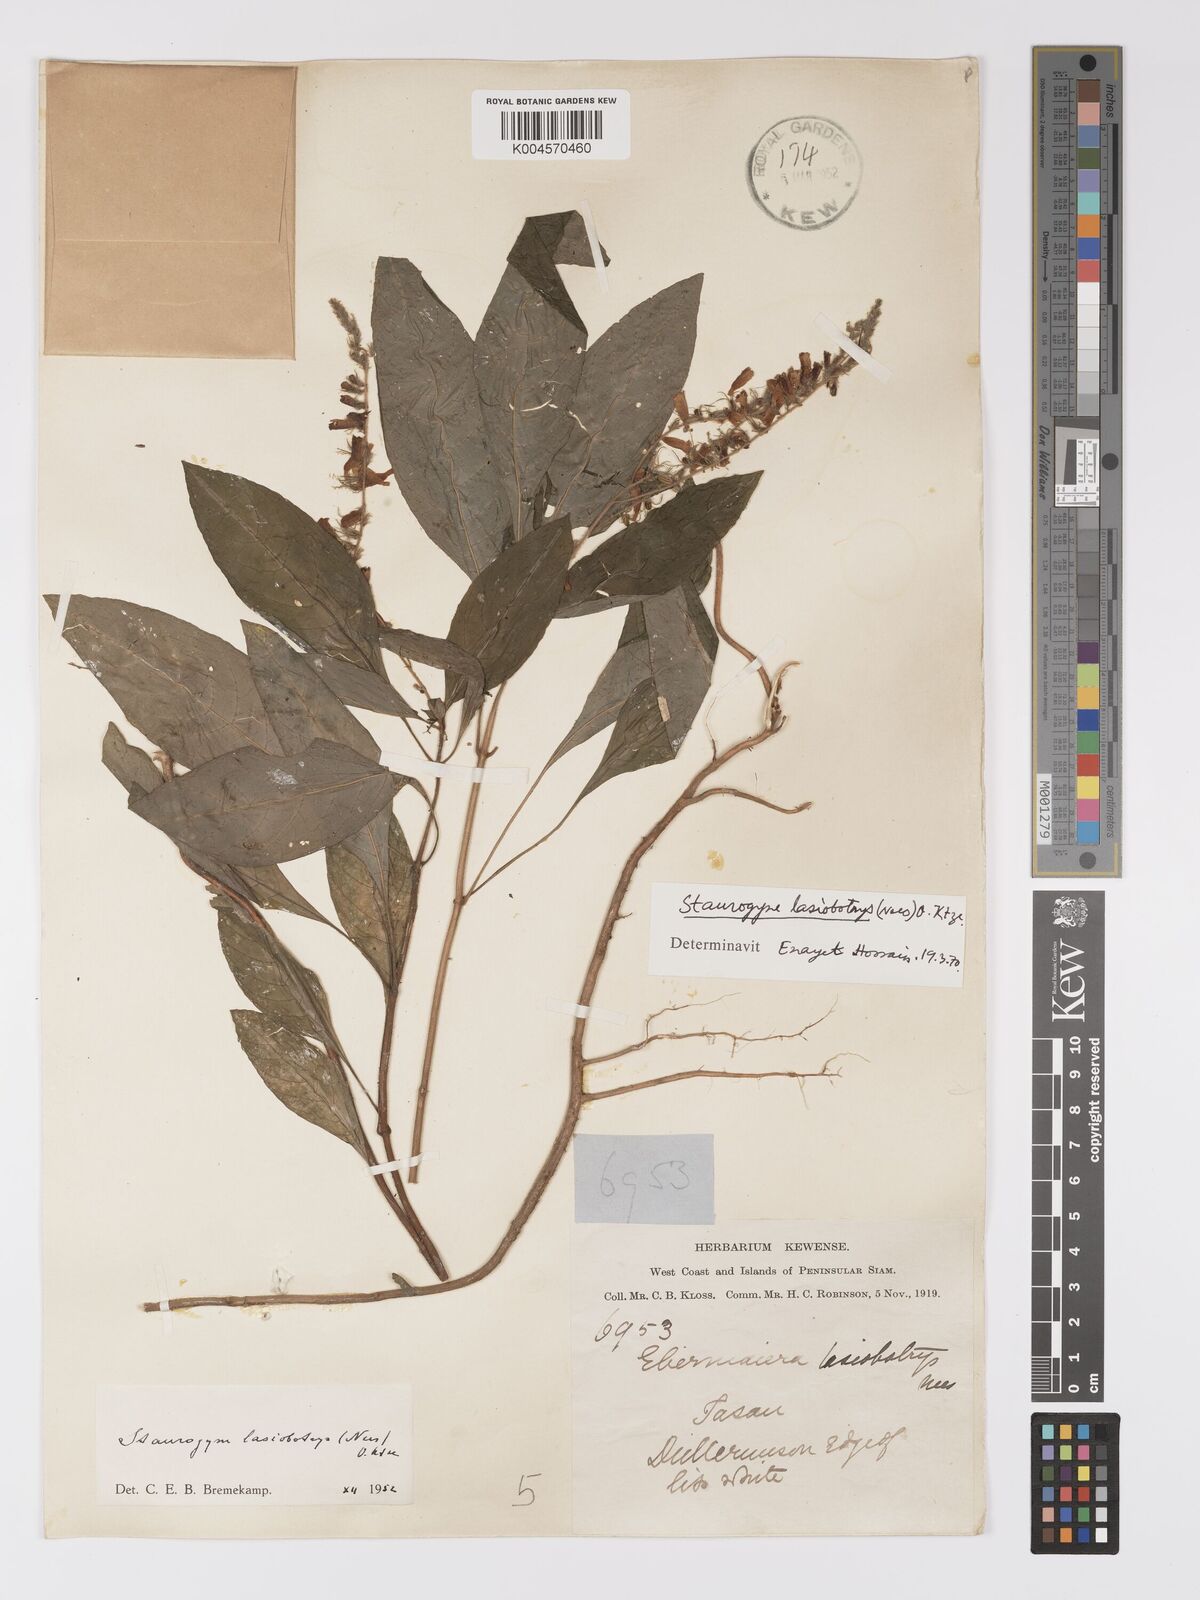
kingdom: Plantae
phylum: Tracheophyta
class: Magnoliopsida
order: Lamiales
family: Acanthaceae
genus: Staurogyne
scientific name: Staurogyne lasiobotrys
